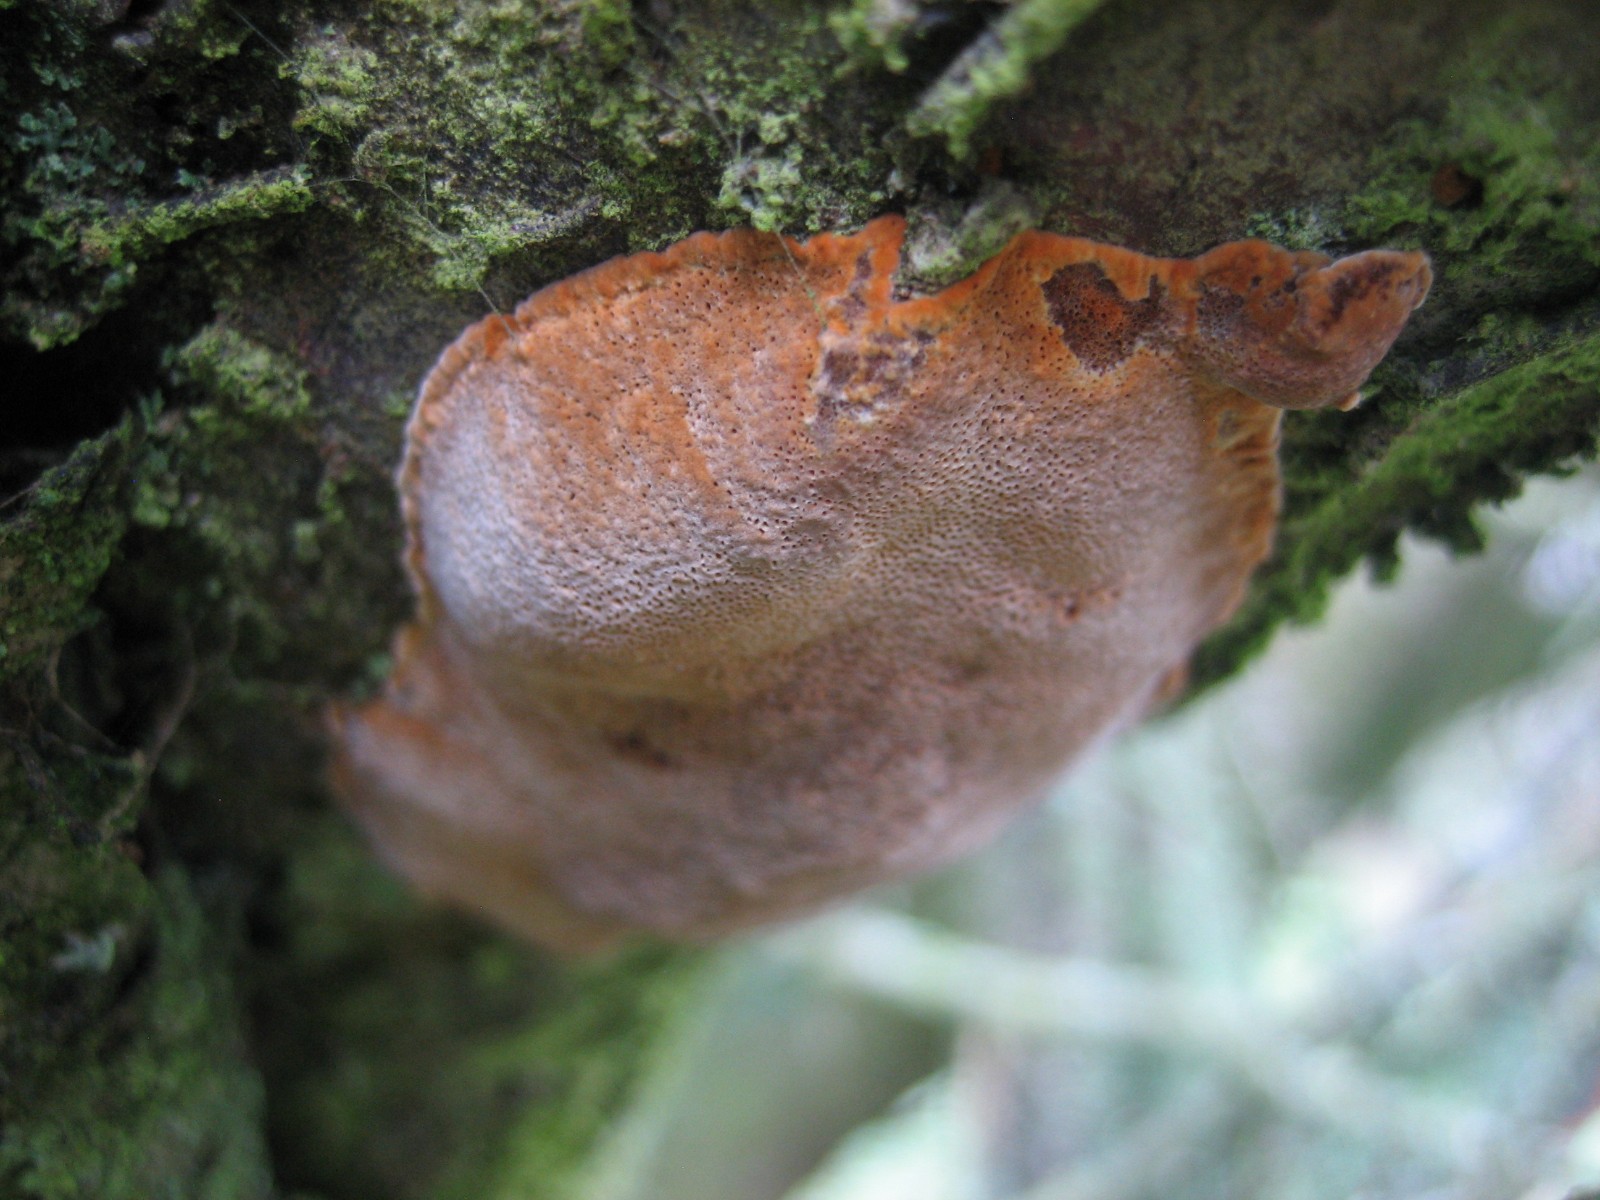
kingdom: Fungi
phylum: Basidiomycota
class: Agaricomycetes
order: Hymenochaetales
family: Hymenochaetaceae
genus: Phellinus
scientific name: Phellinus pomaceus
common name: blomme-ildporesvamp
